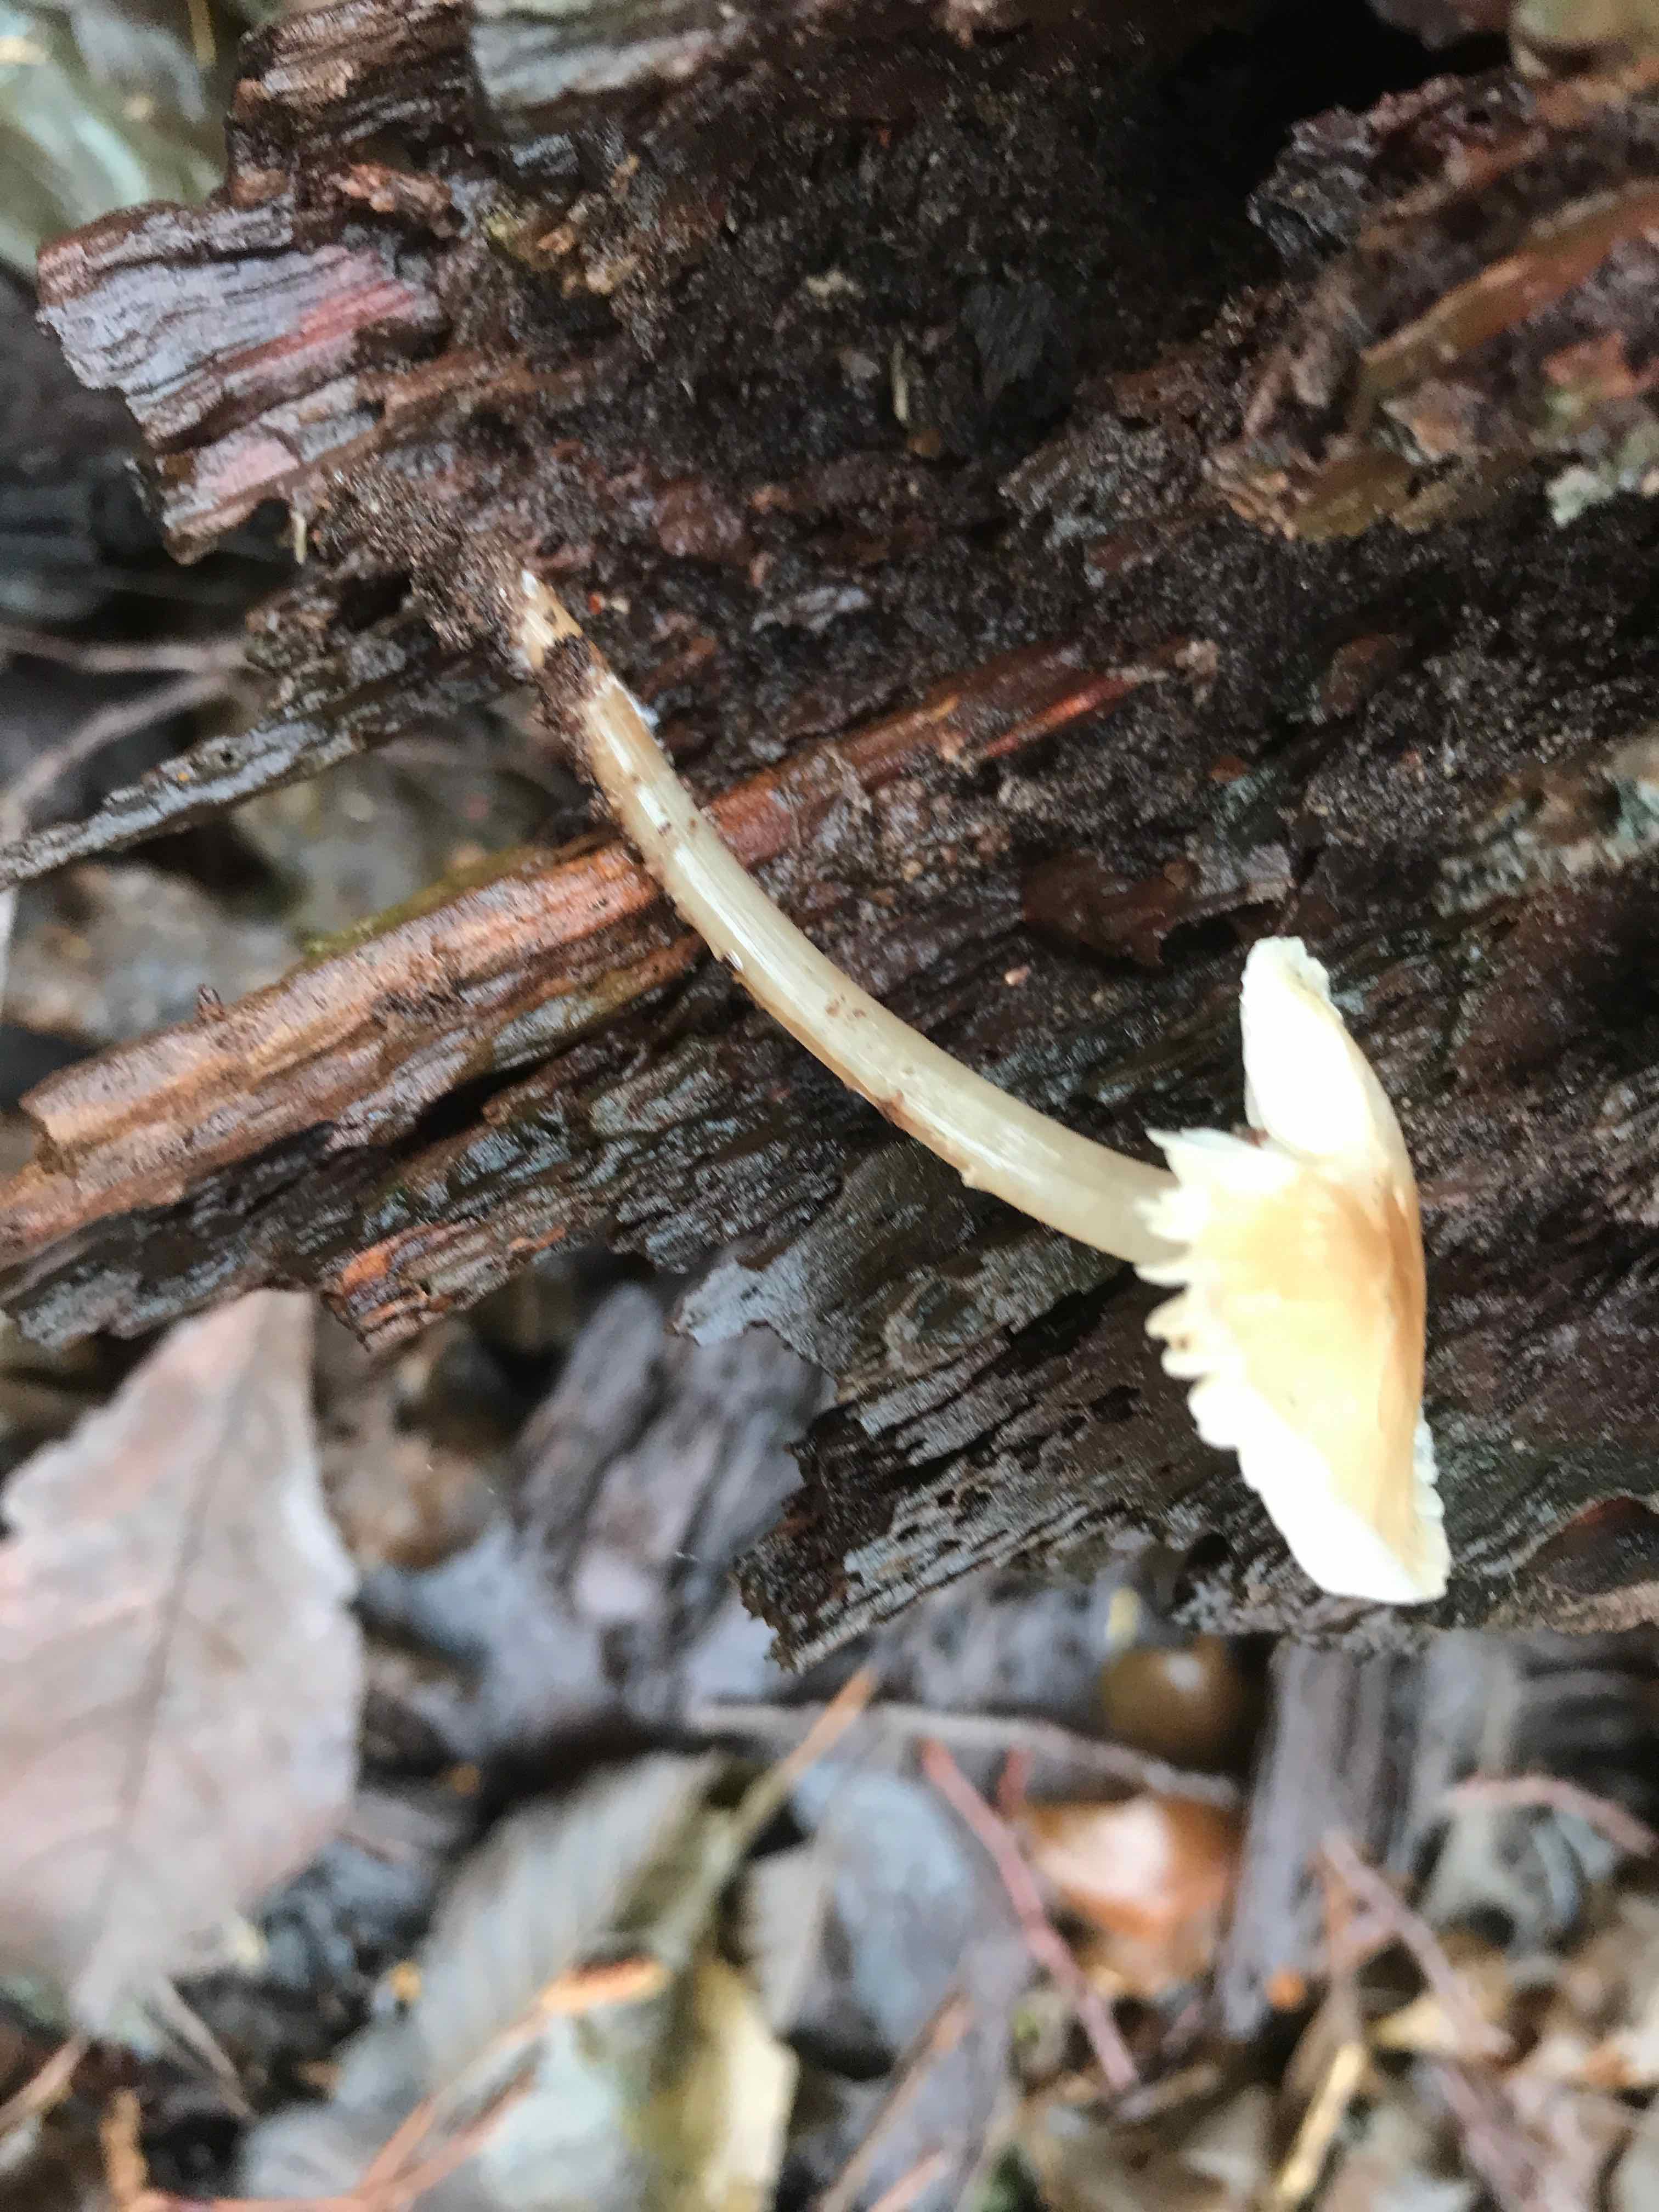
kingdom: Fungi
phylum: Basidiomycota
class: Agaricomycetes
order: Agaricales
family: Mycenaceae
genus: Mycena
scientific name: Mycena galericulata
